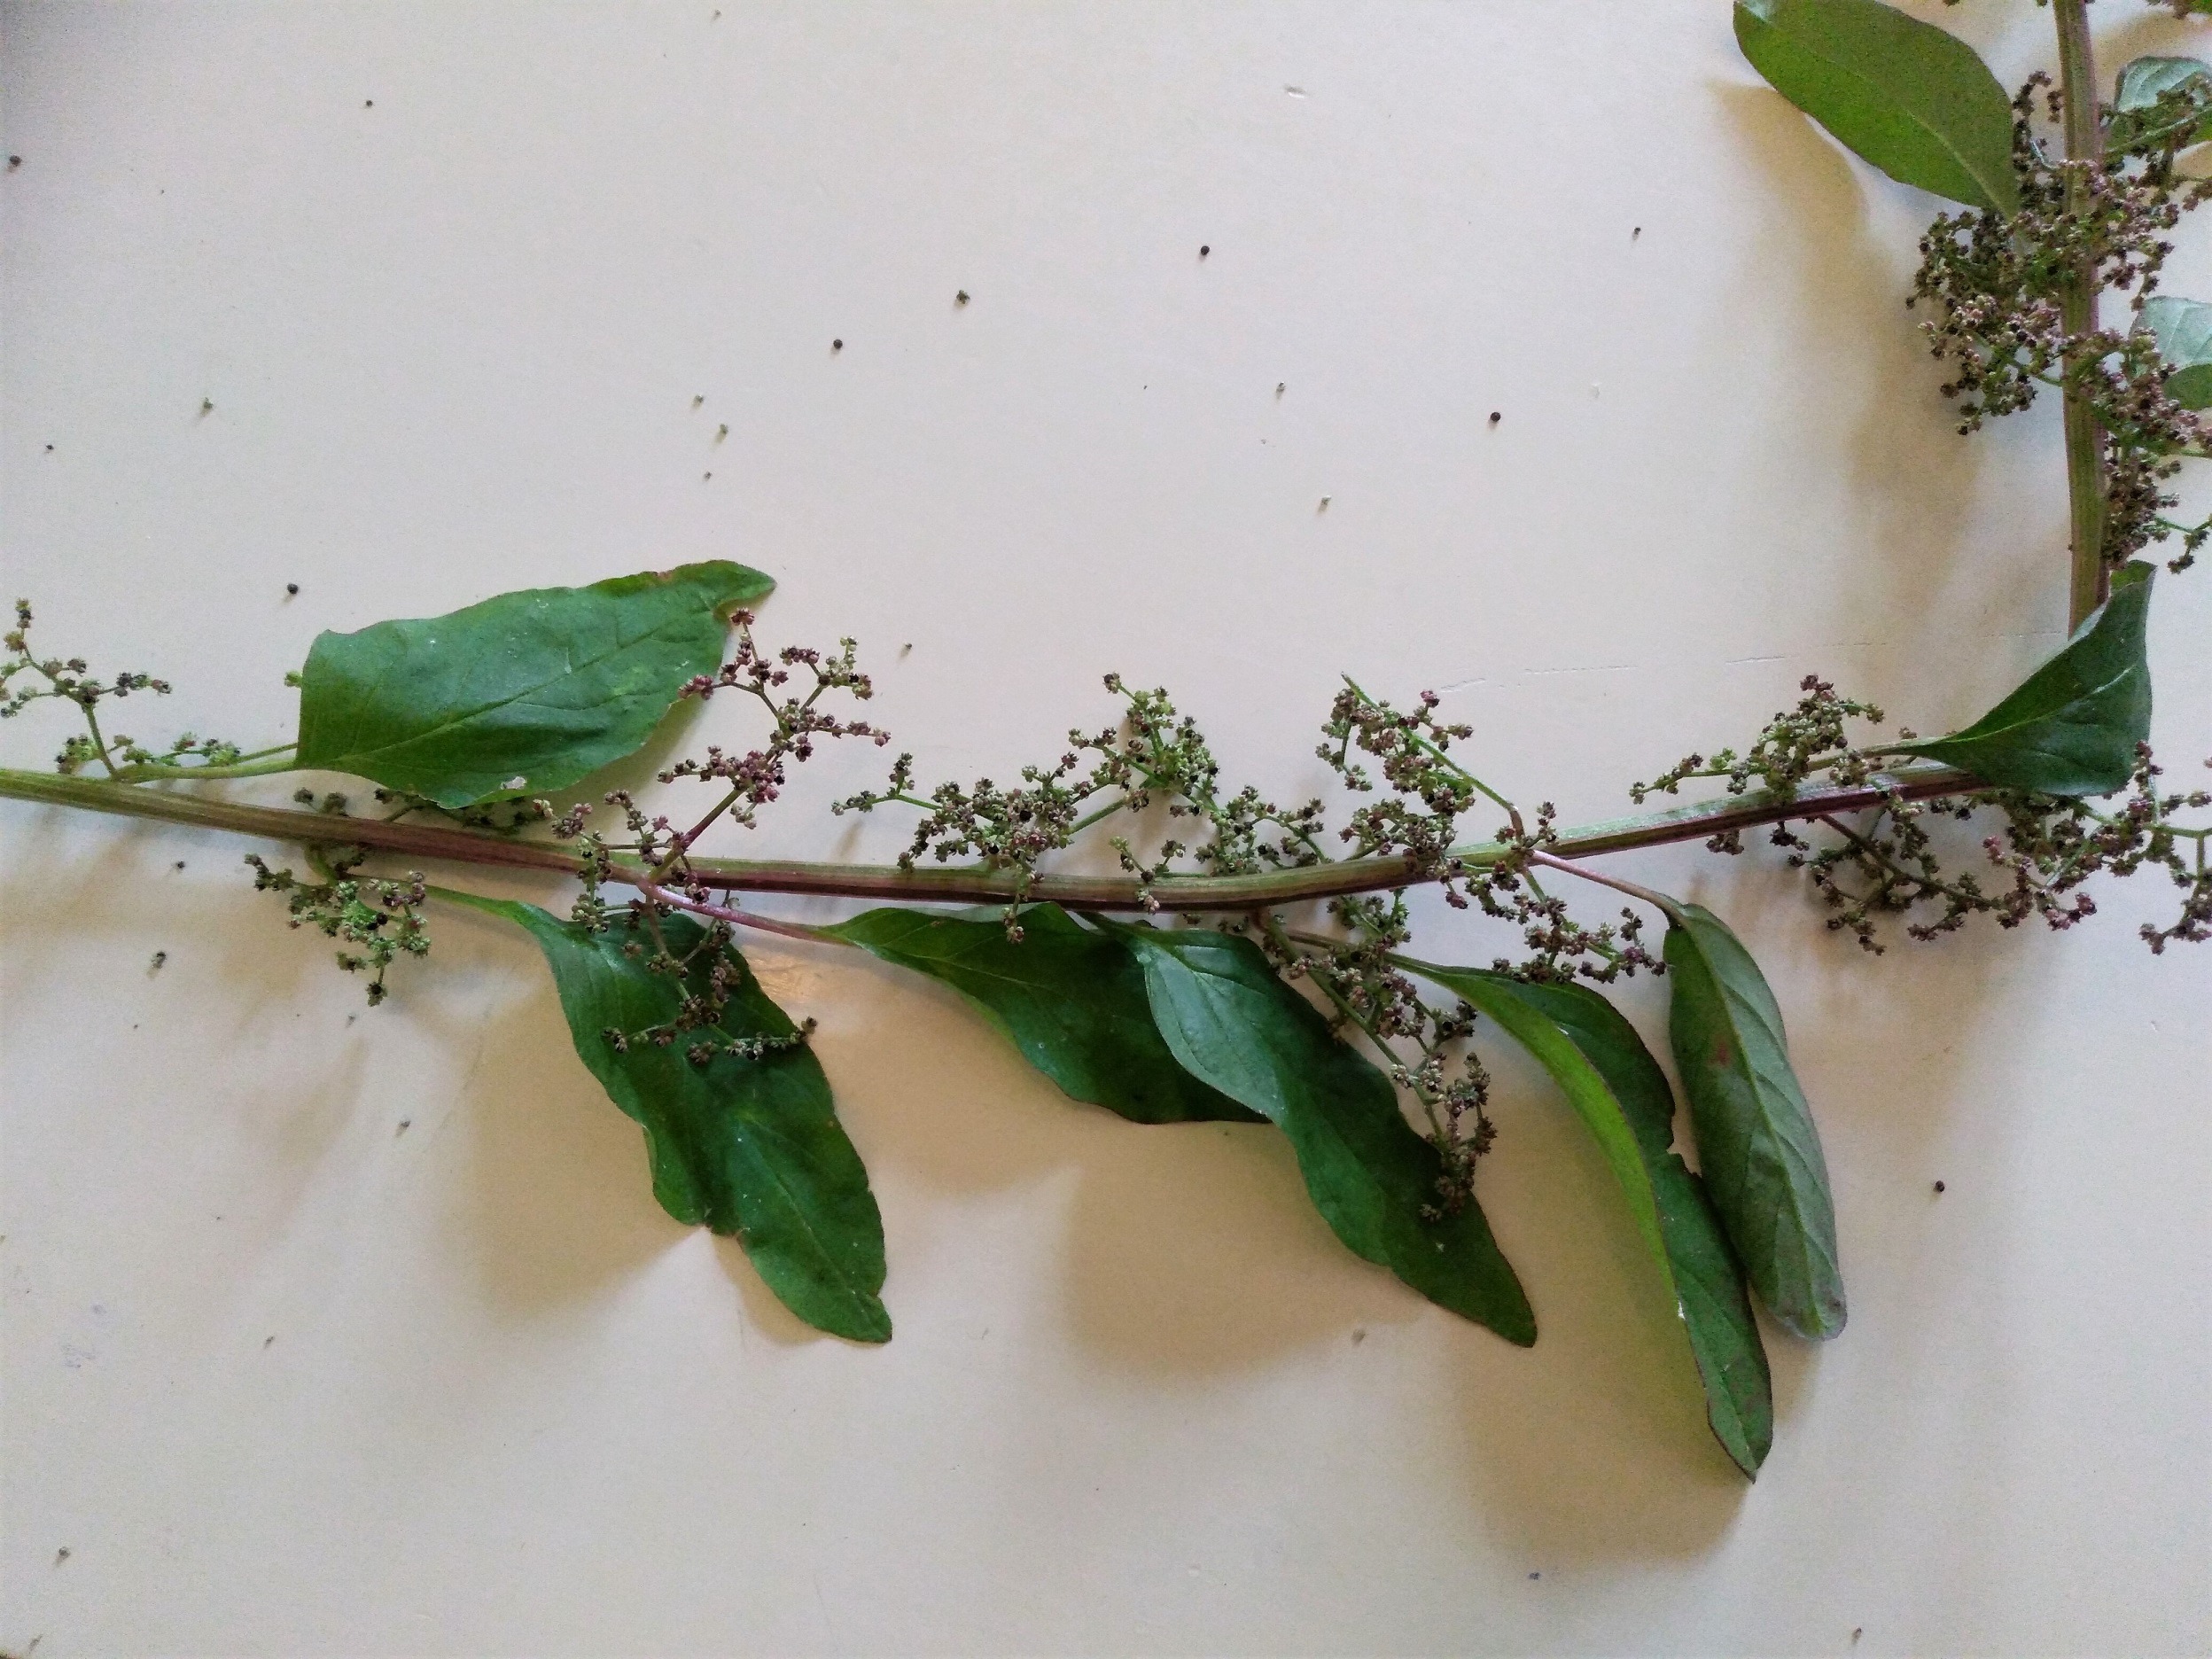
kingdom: Plantae
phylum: Tracheophyta
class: Magnoliopsida
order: Caryophyllales
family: Amaranthaceae
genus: Lipandra
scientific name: Lipandra polysperma
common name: Mangefrøet gåsefod
